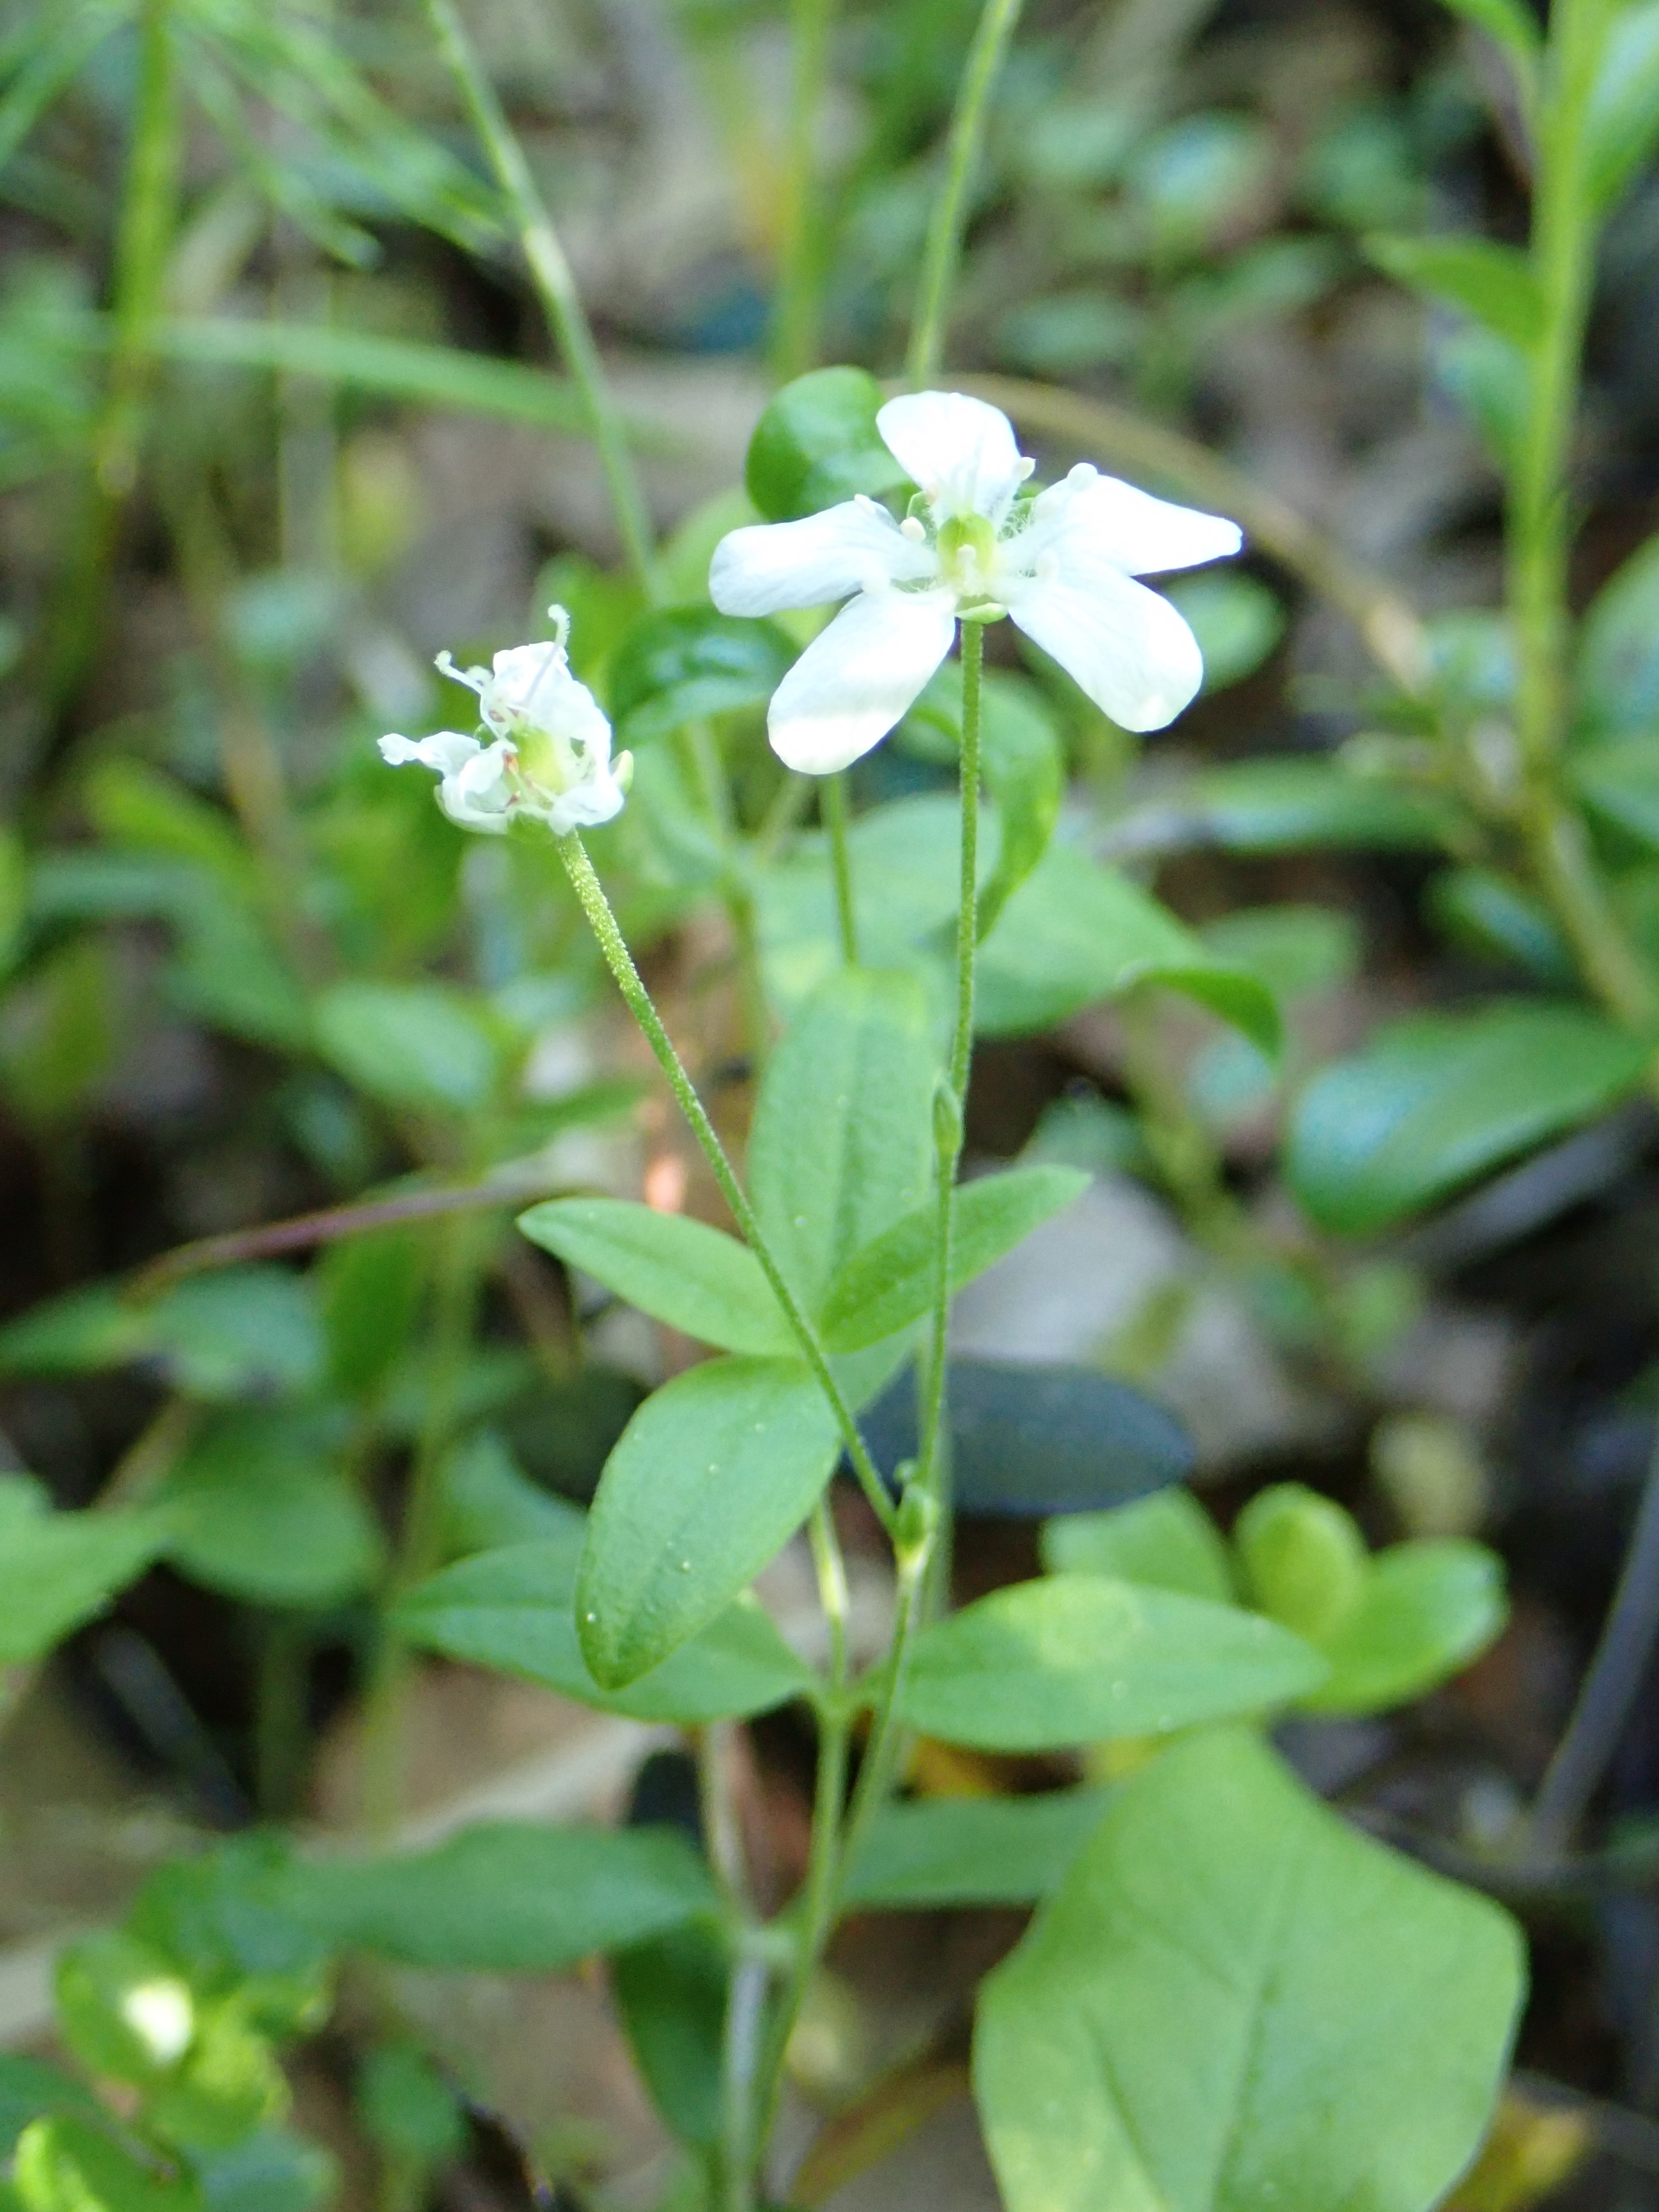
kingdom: Plantae
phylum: Tracheophyta
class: Magnoliopsida
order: Caryophyllales
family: Caryophyllaceae
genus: Moehringia
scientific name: Moehringia lateriflora
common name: Blunt-leaved sandwort
